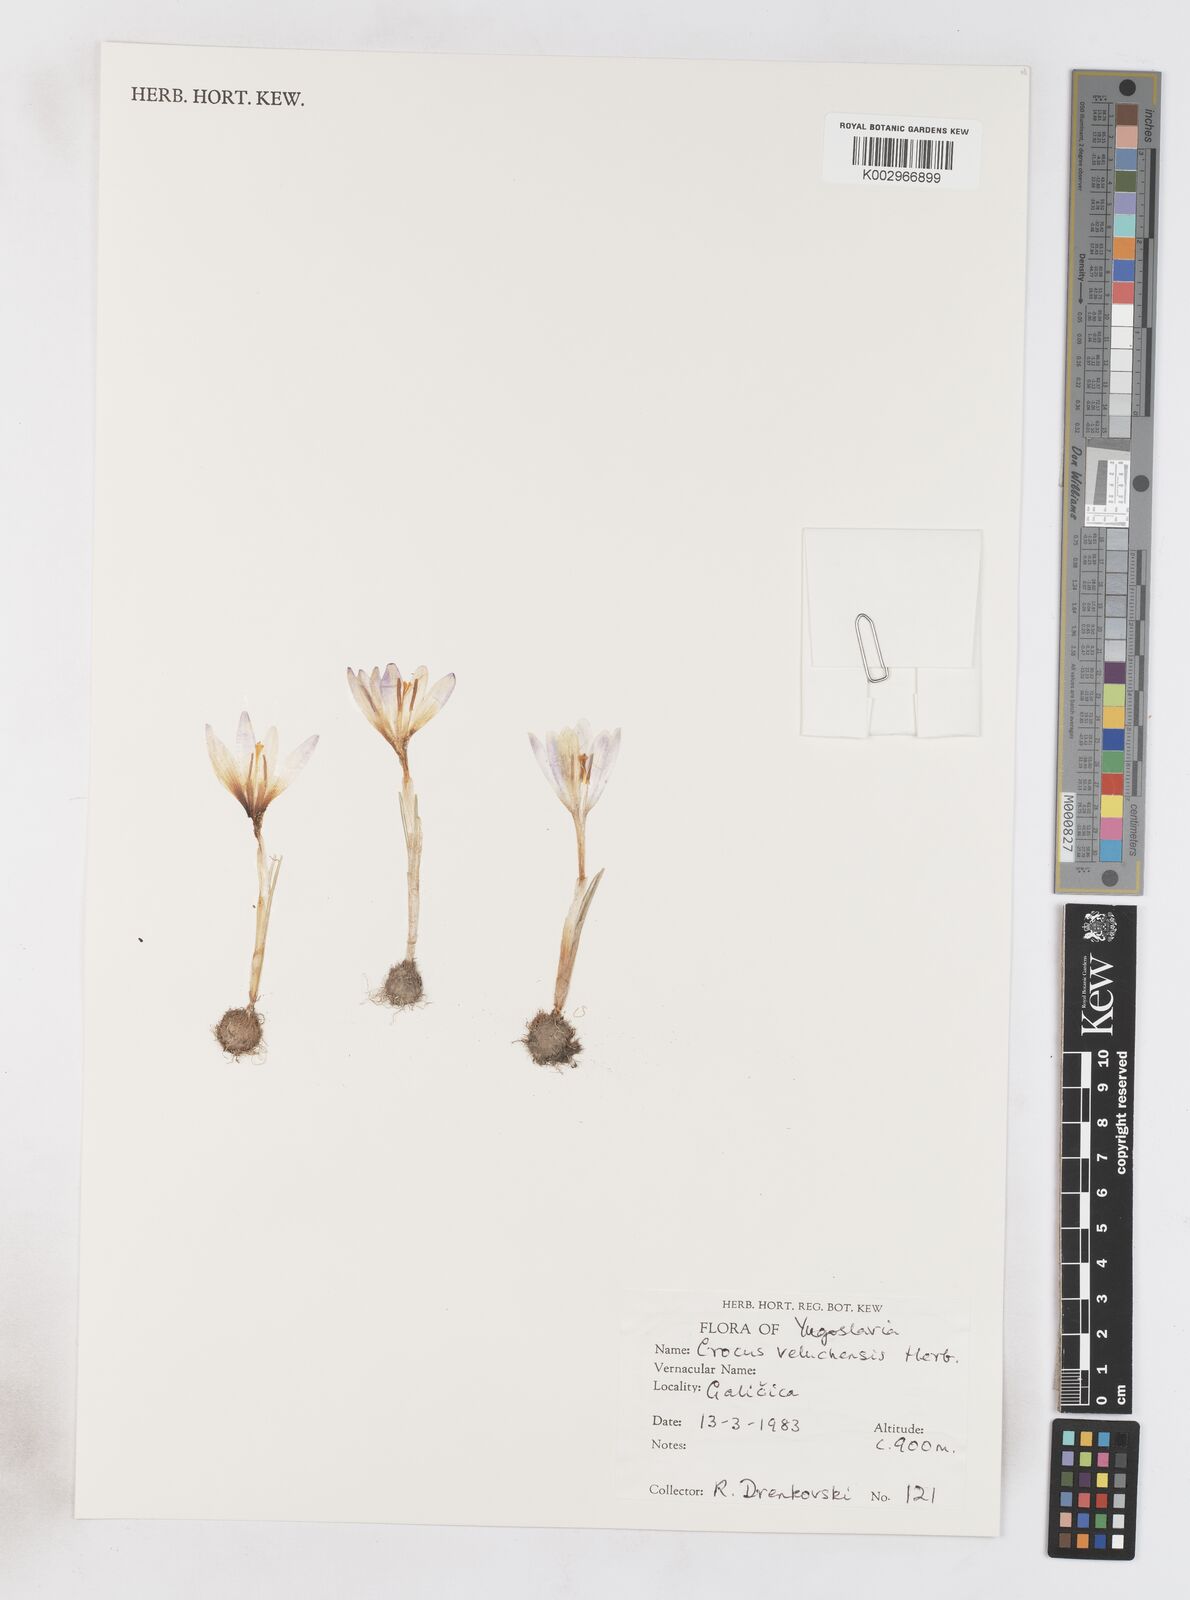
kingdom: Plantae
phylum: Tracheophyta
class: Liliopsida
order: Asparagales
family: Iridaceae
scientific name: Iridaceae
